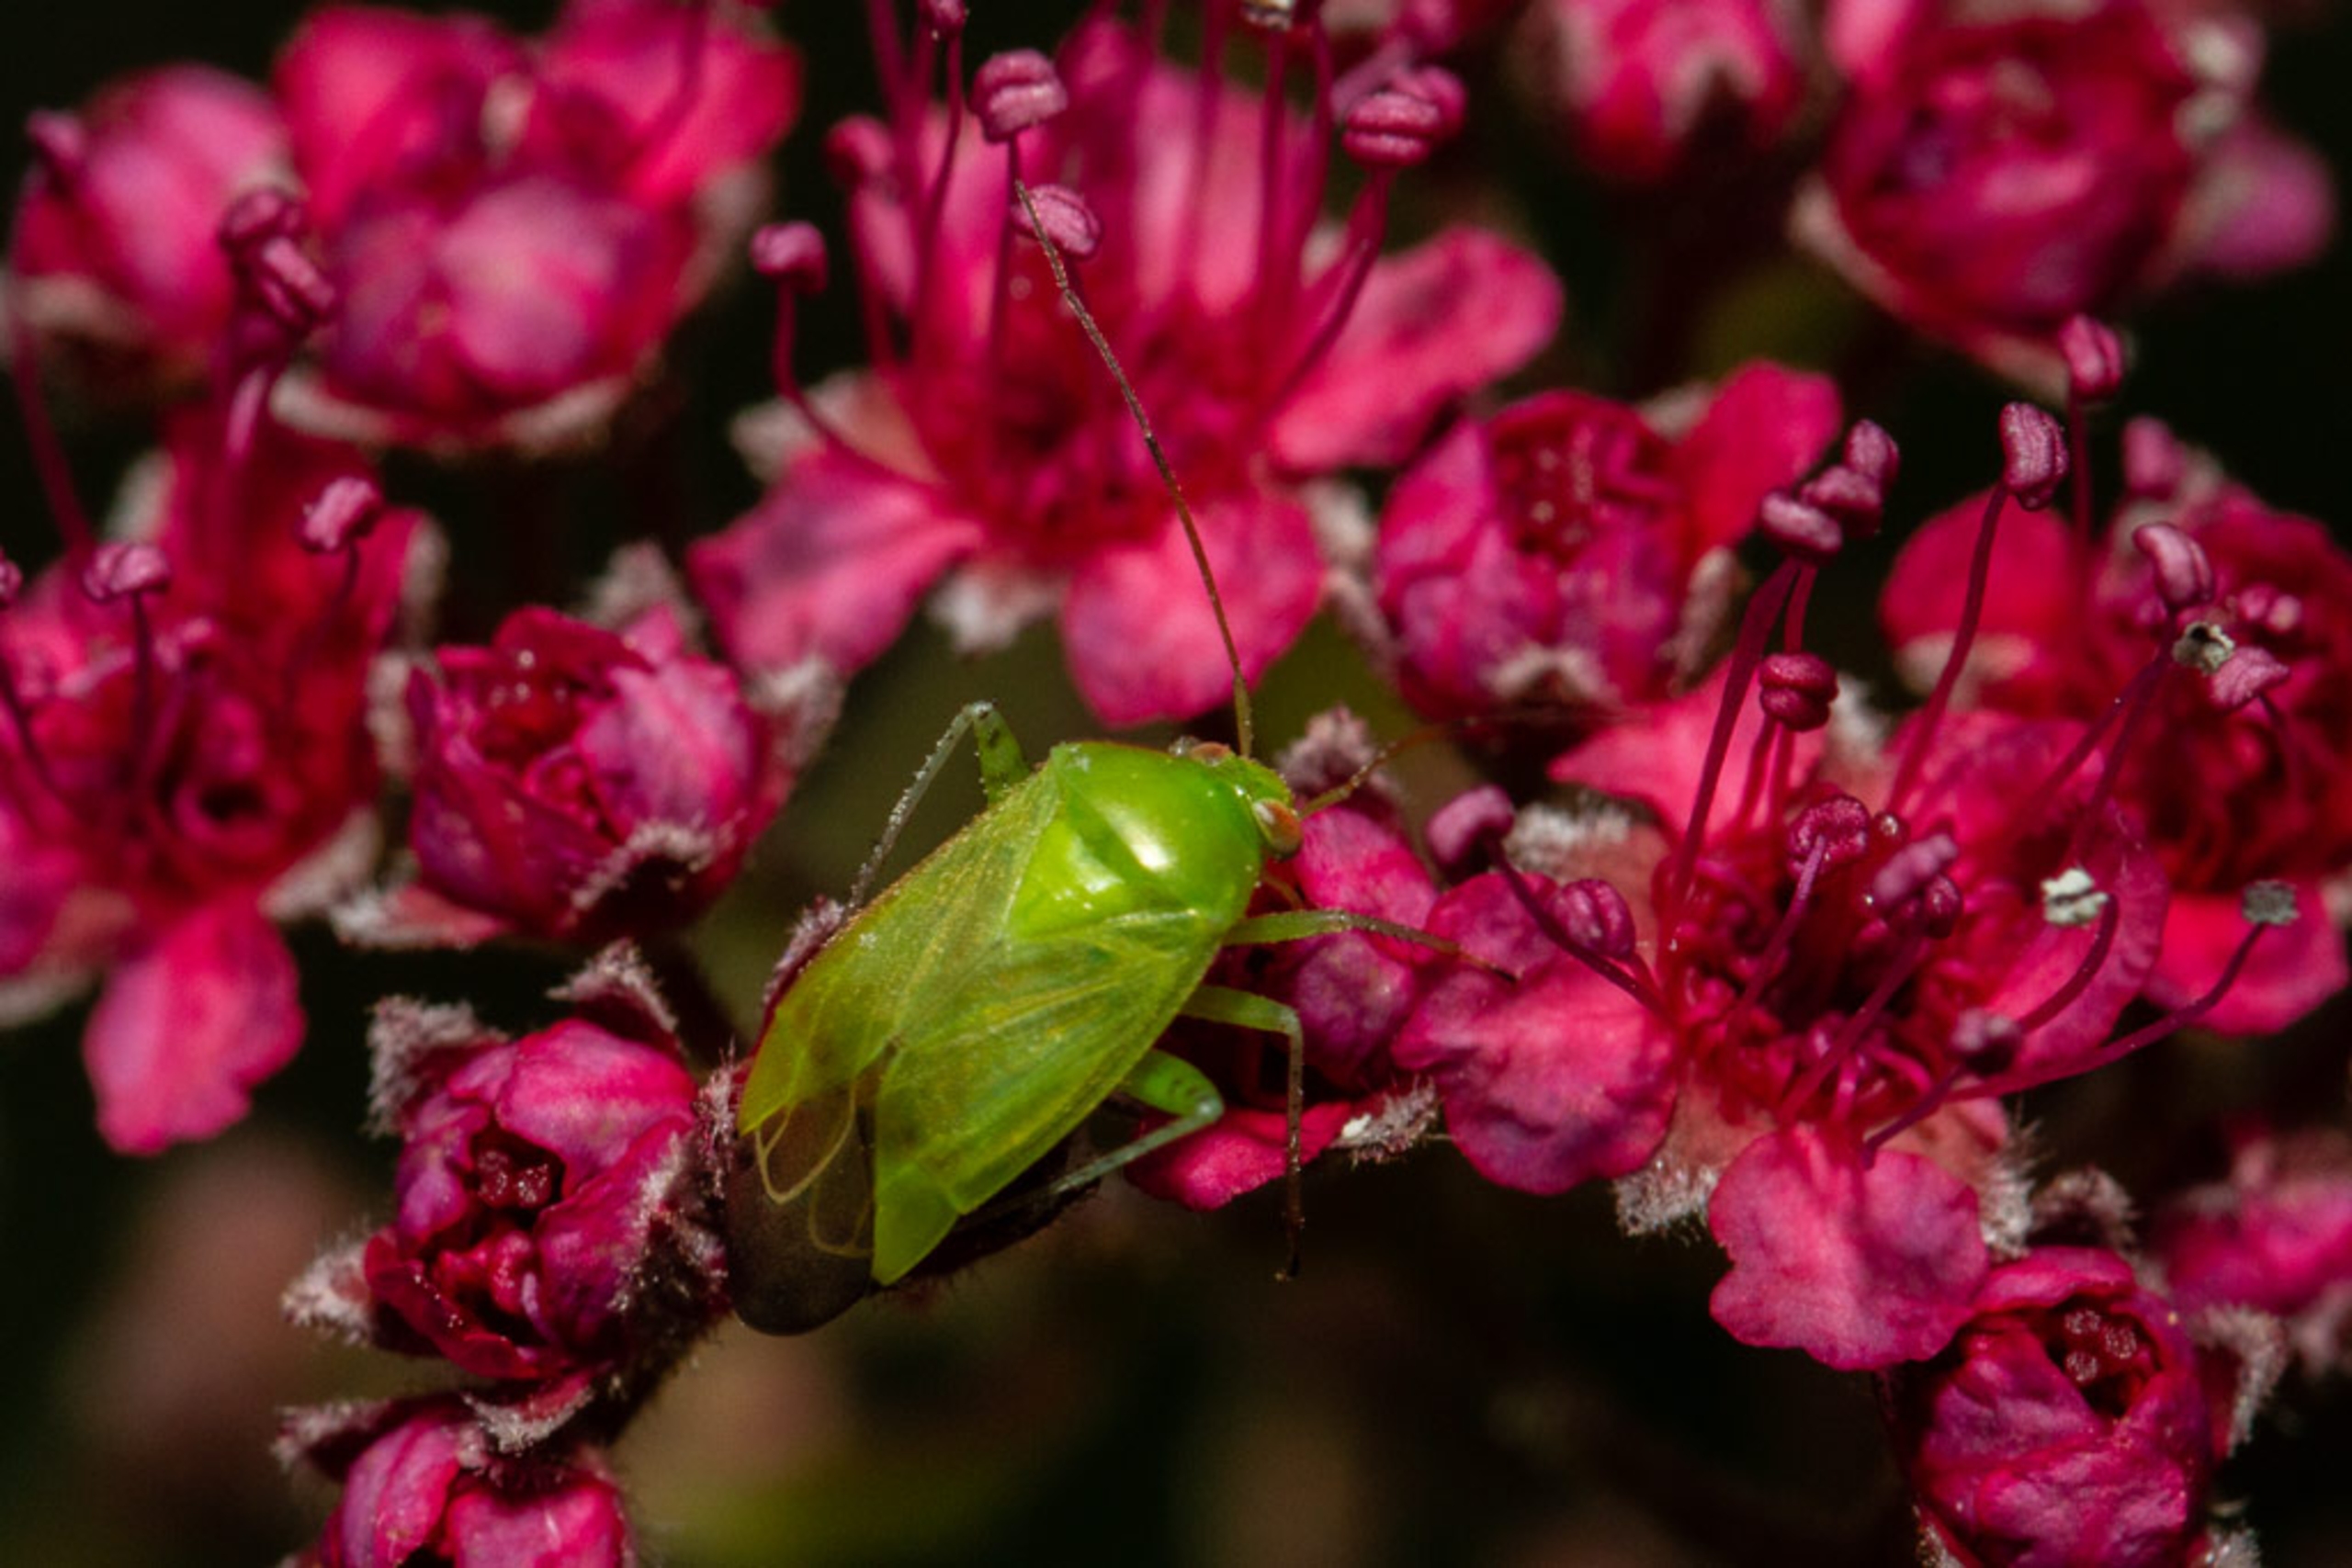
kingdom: Animalia
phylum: Arthropoda
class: Insecta
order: Hemiptera
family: Miridae
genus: Apolygus
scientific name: Apolygus spinolae
